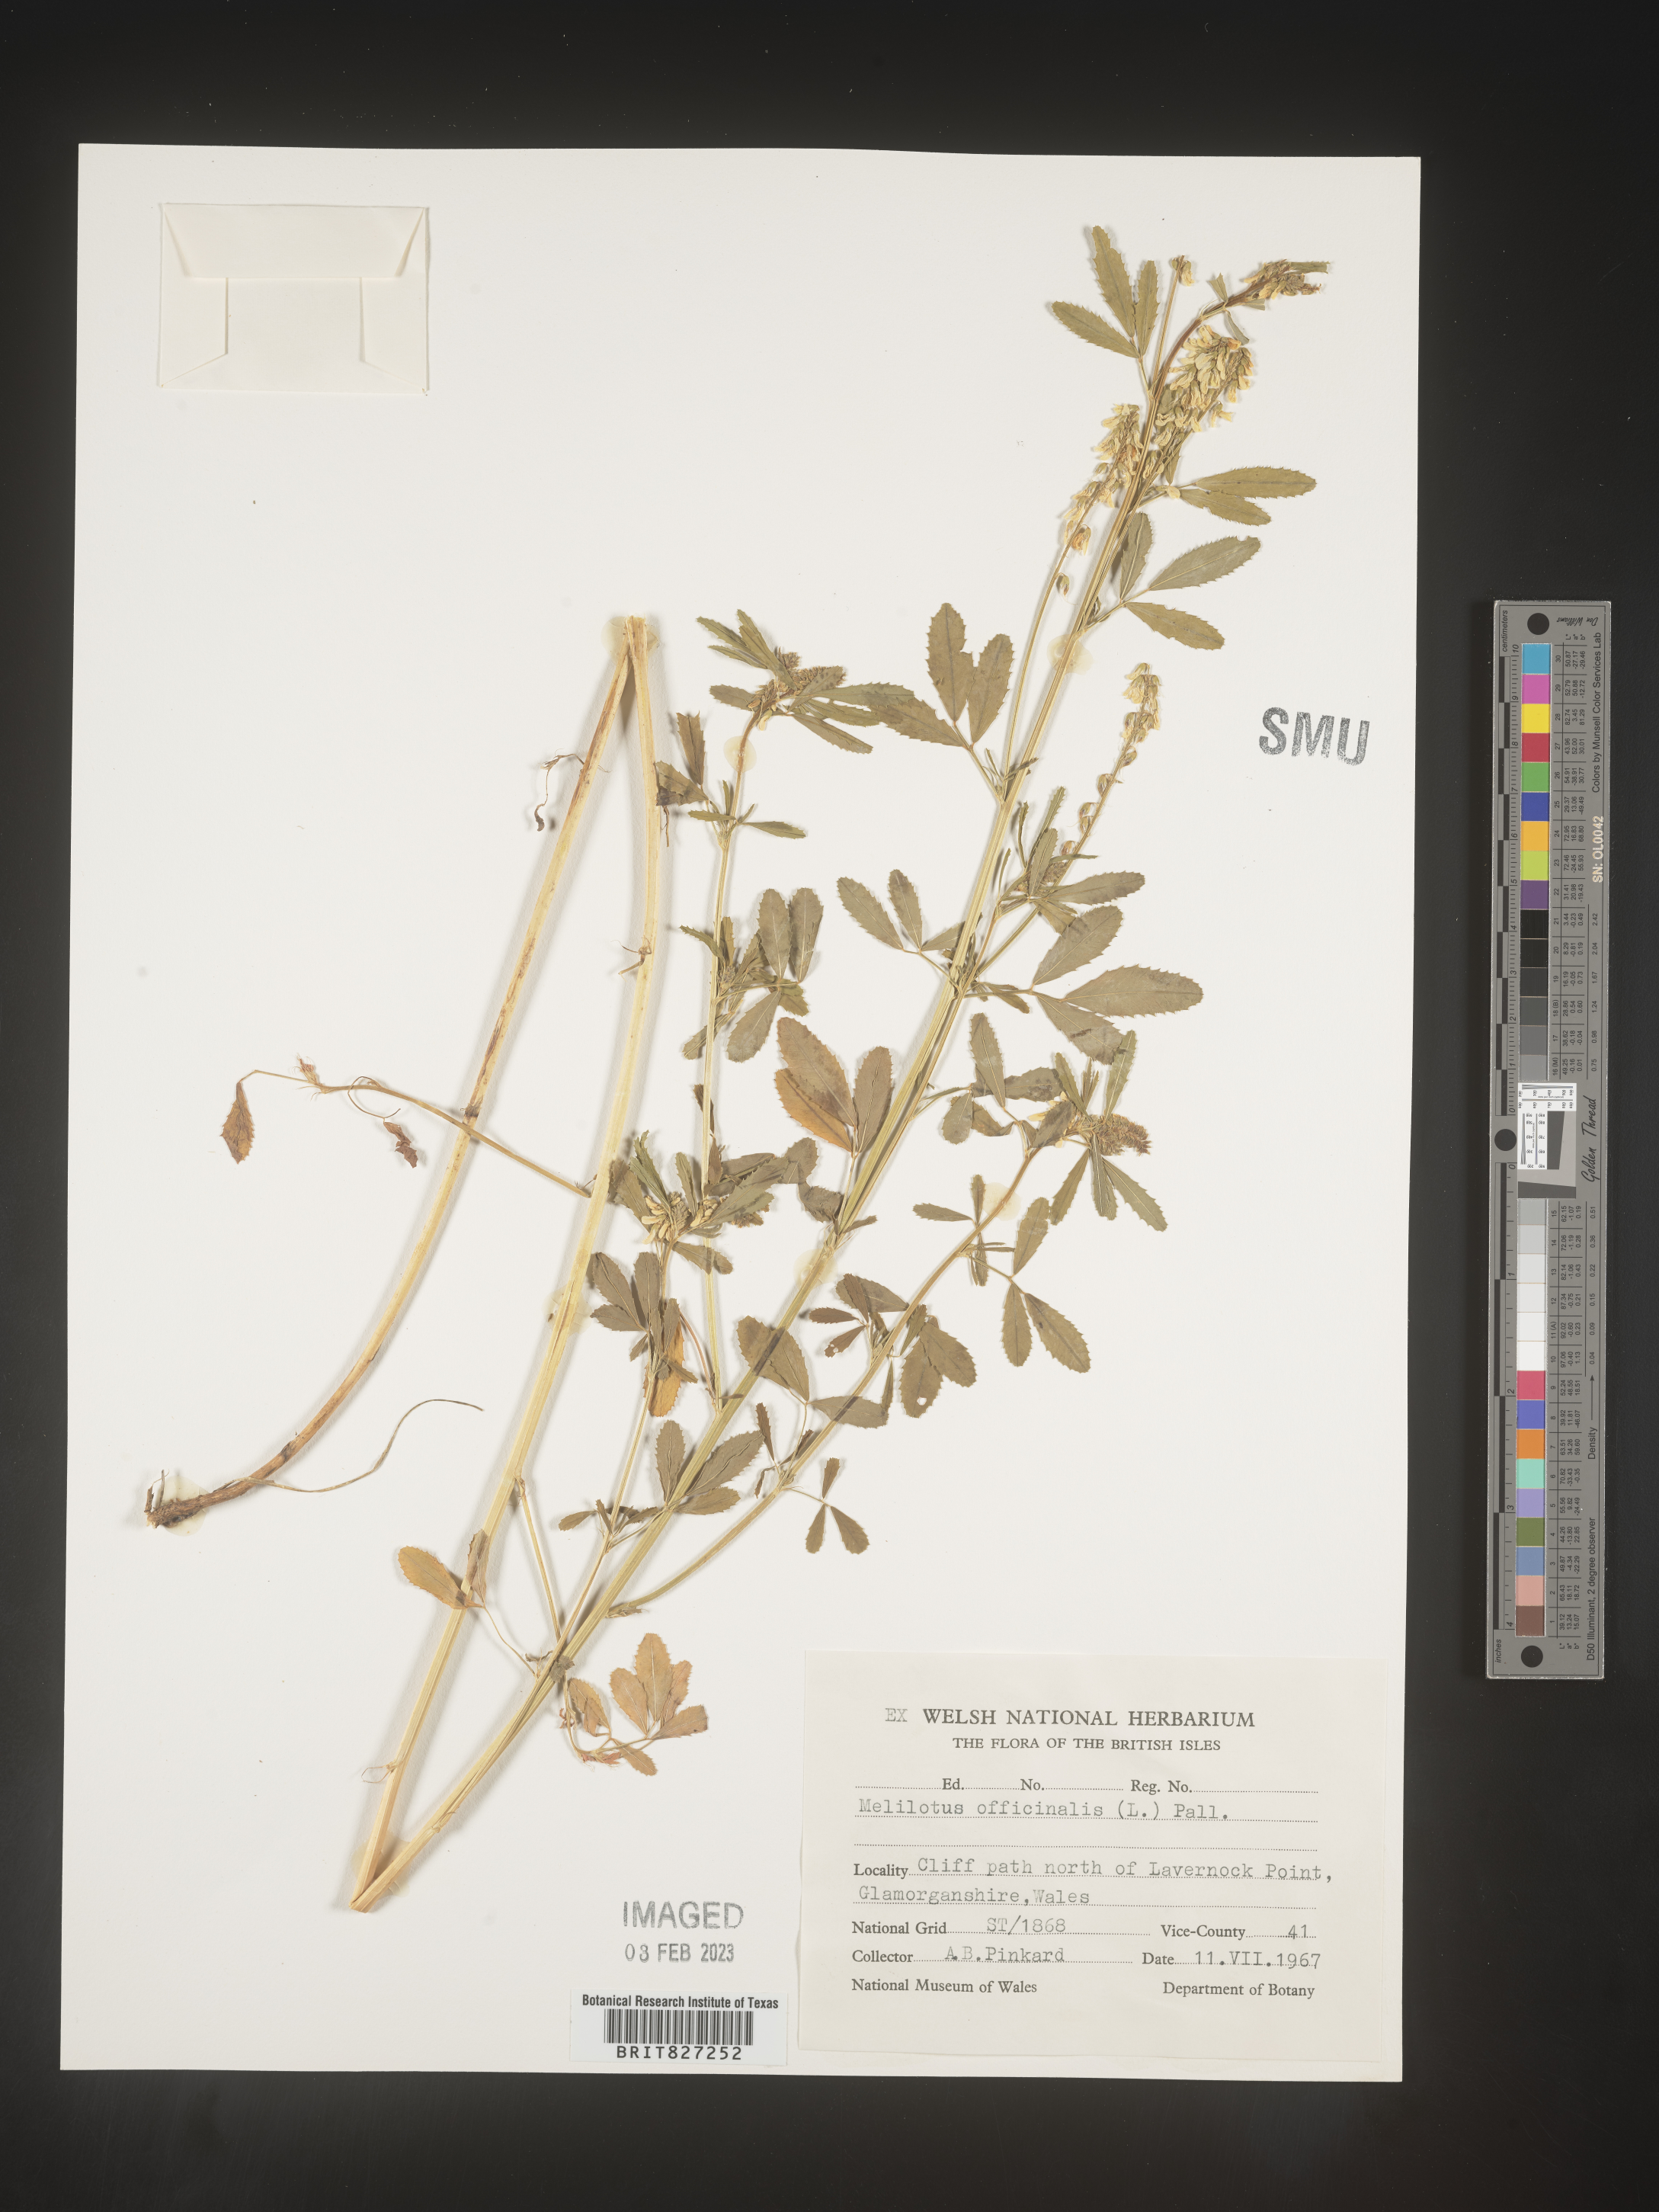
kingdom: Plantae
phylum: Tracheophyta
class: Magnoliopsida
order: Fabales
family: Fabaceae
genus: Melilotus
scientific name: Melilotus
